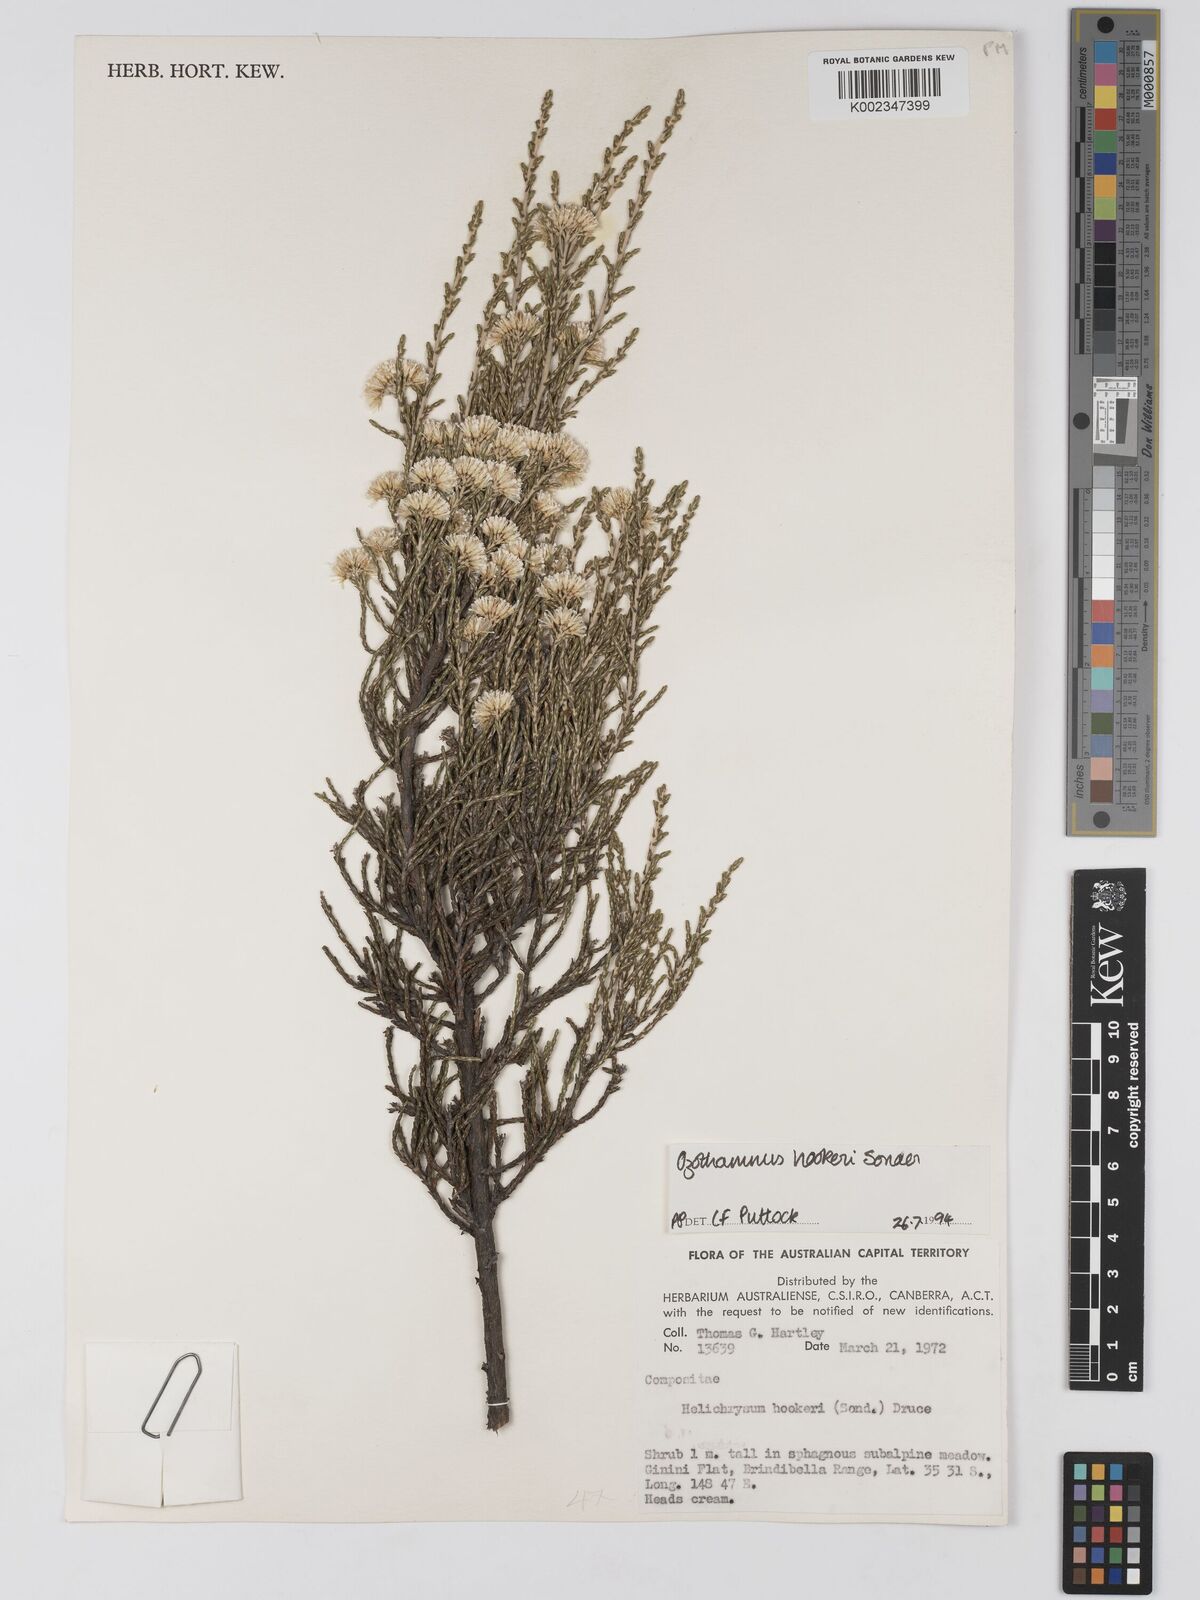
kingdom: Plantae
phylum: Tracheophyta
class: Magnoliopsida
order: Asterales
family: Asteraceae
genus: Ozothamnus
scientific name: Ozothamnus hookeri
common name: Kerosene-bush
